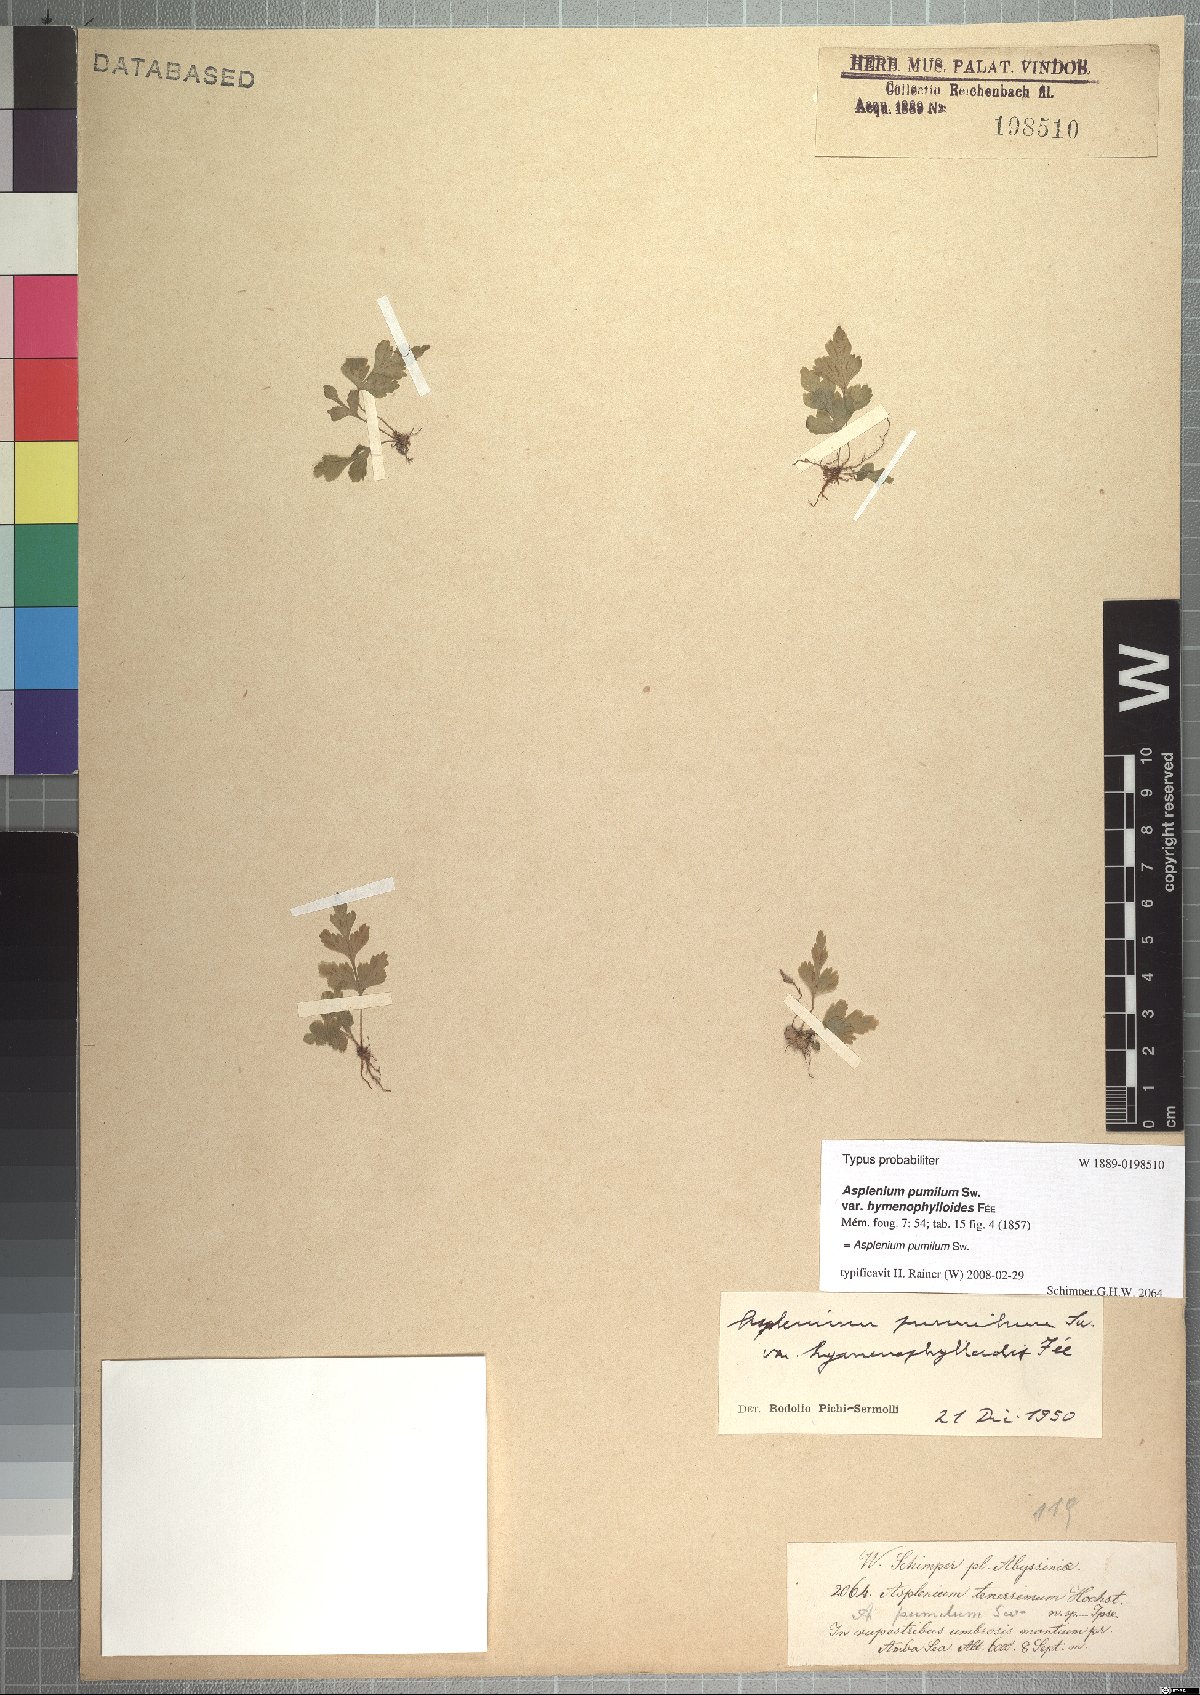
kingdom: Plantae
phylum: Tracheophyta
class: Polypodiopsida
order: Polypodiales
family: Aspleniaceae
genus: Asplenium
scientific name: Asplenium pumilum
